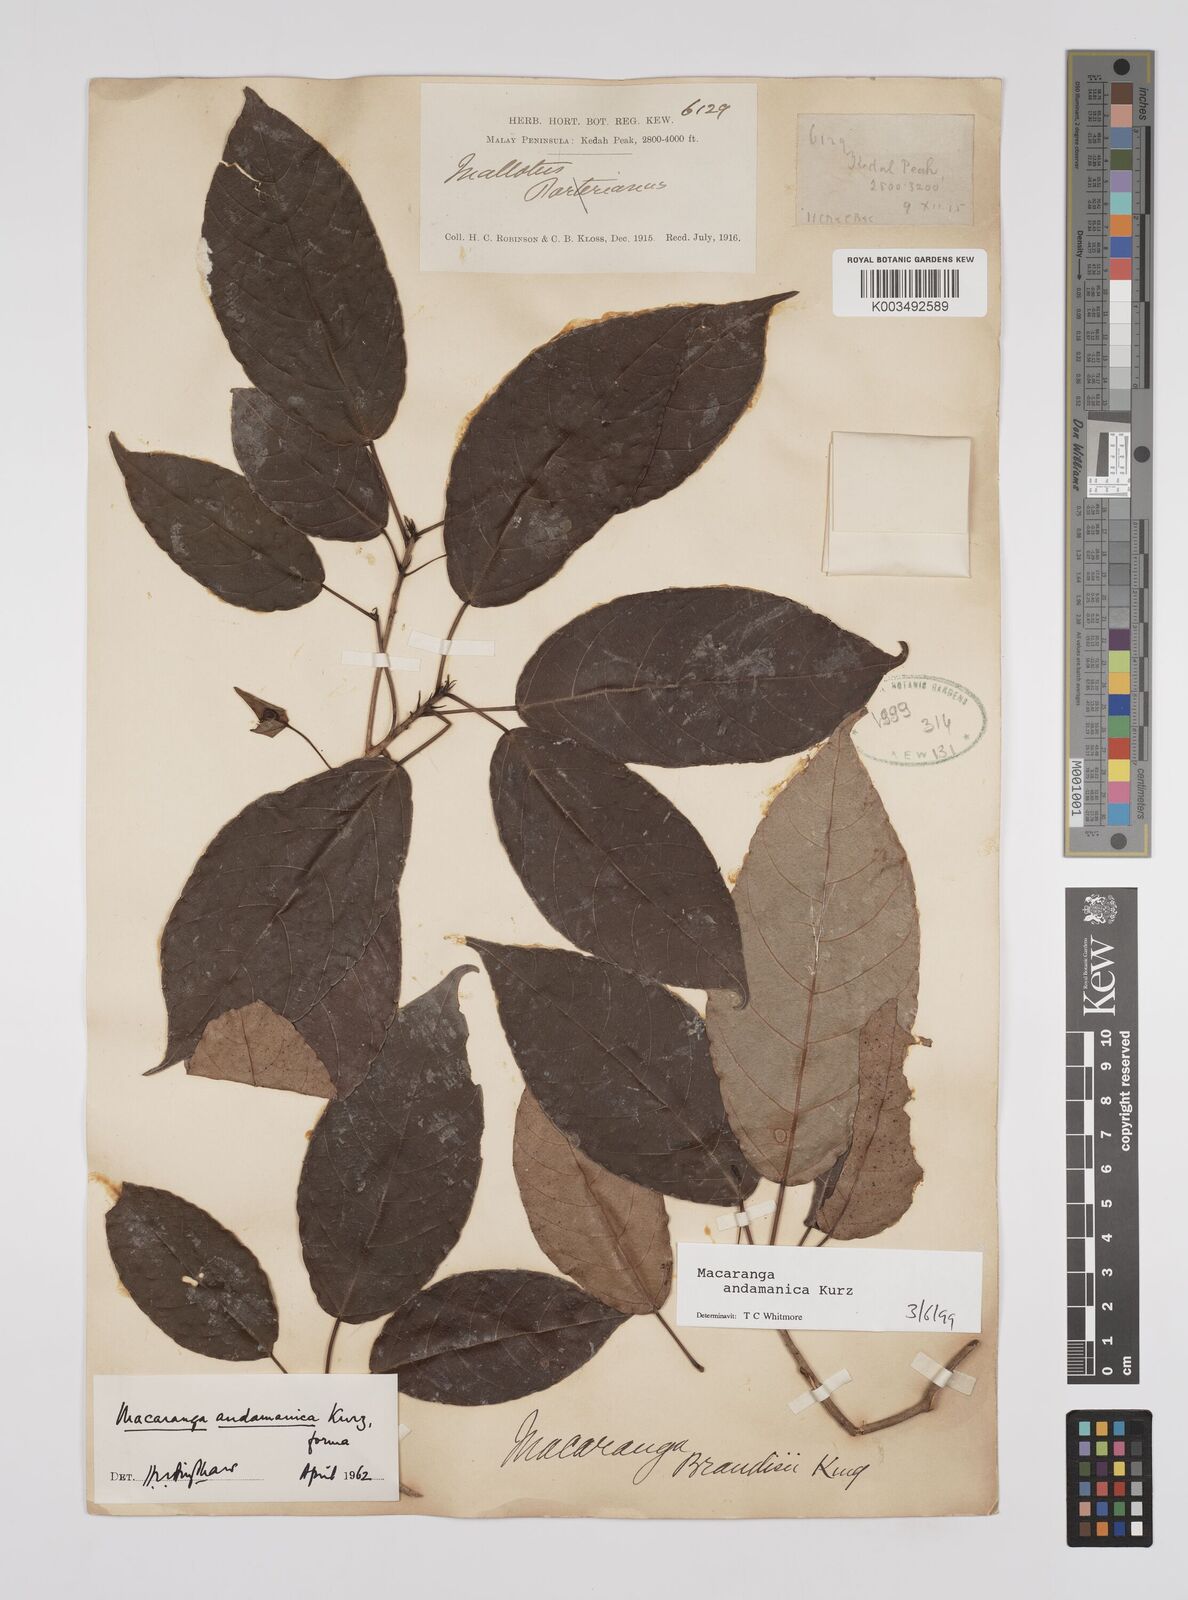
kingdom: Plantae
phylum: Tracheophyta
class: Magnoliopsida
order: Malpighiales
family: Euphorbiaceae
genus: Macaranga
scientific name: Macaranga andamanica
